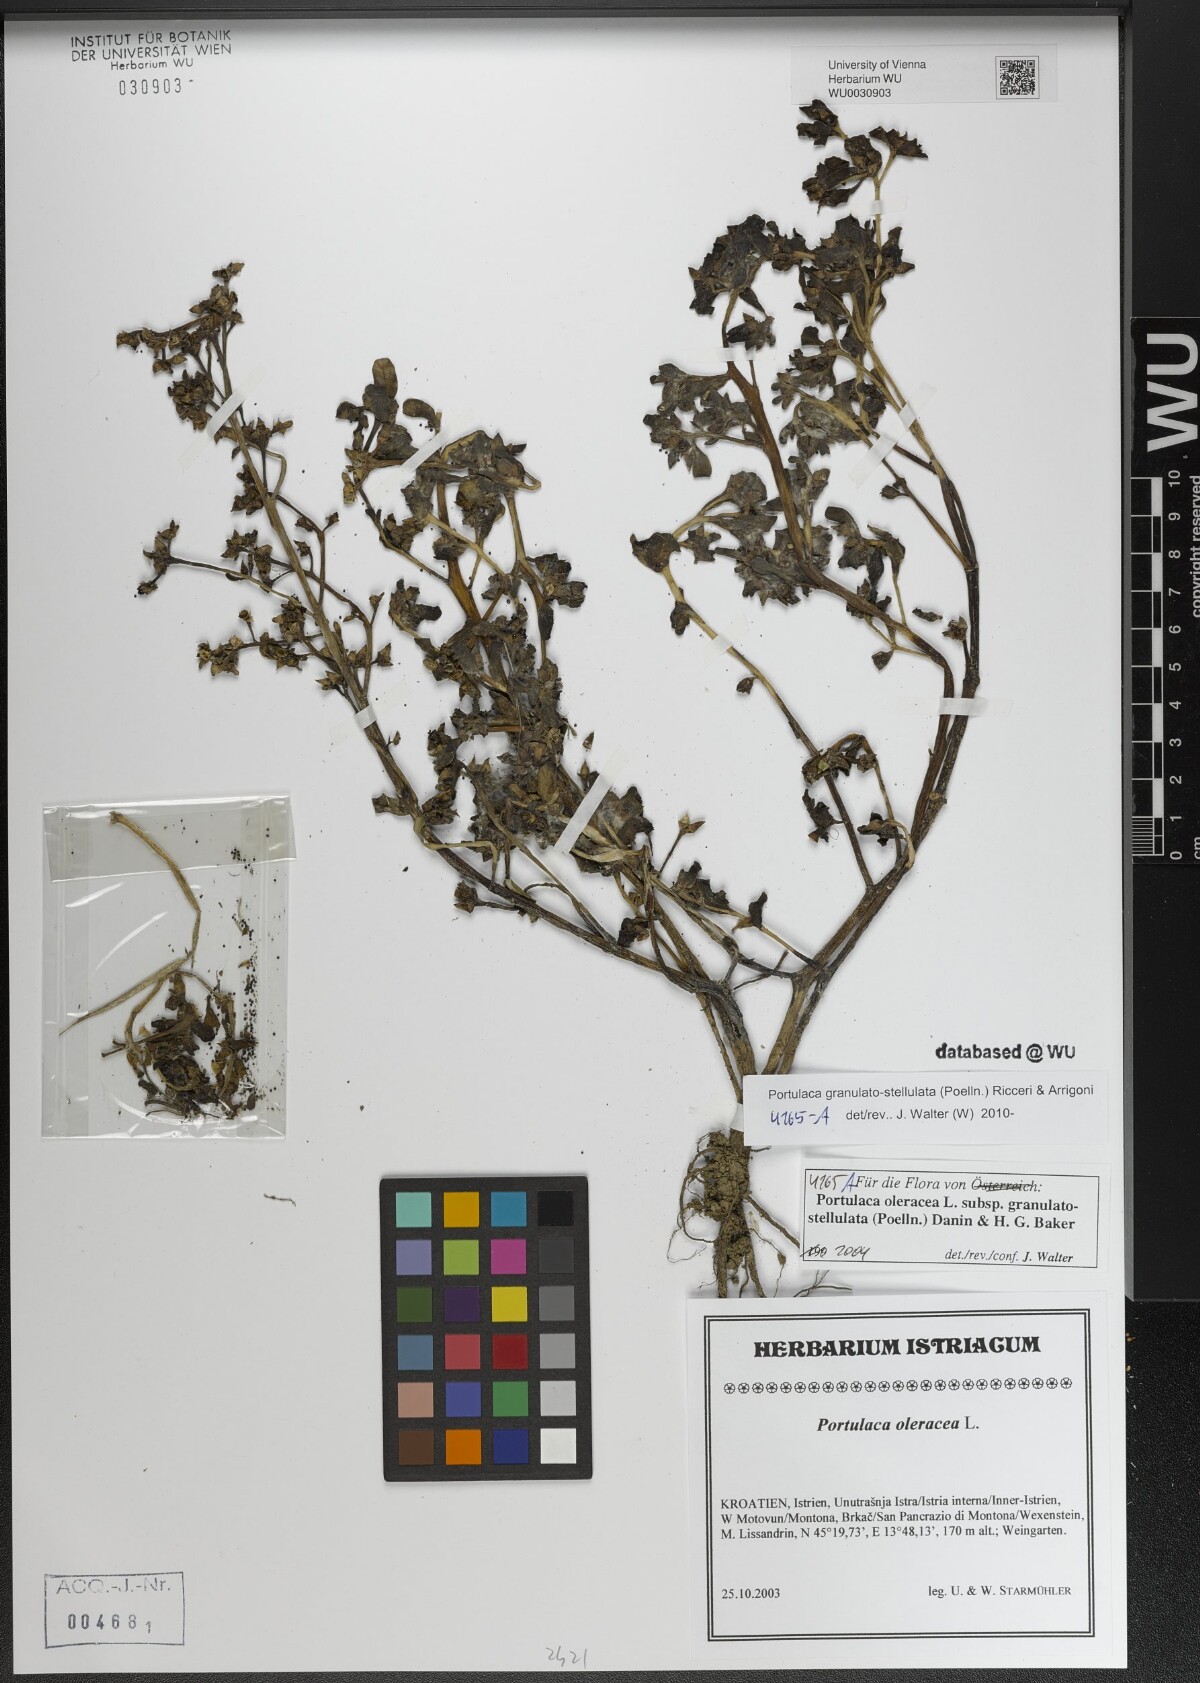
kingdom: Plantae
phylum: Tracheophyta
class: Magnoliopsida
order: Caryophyllales
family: Portulacaceae
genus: Portulaca
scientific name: Portulaca granulatostellulata
